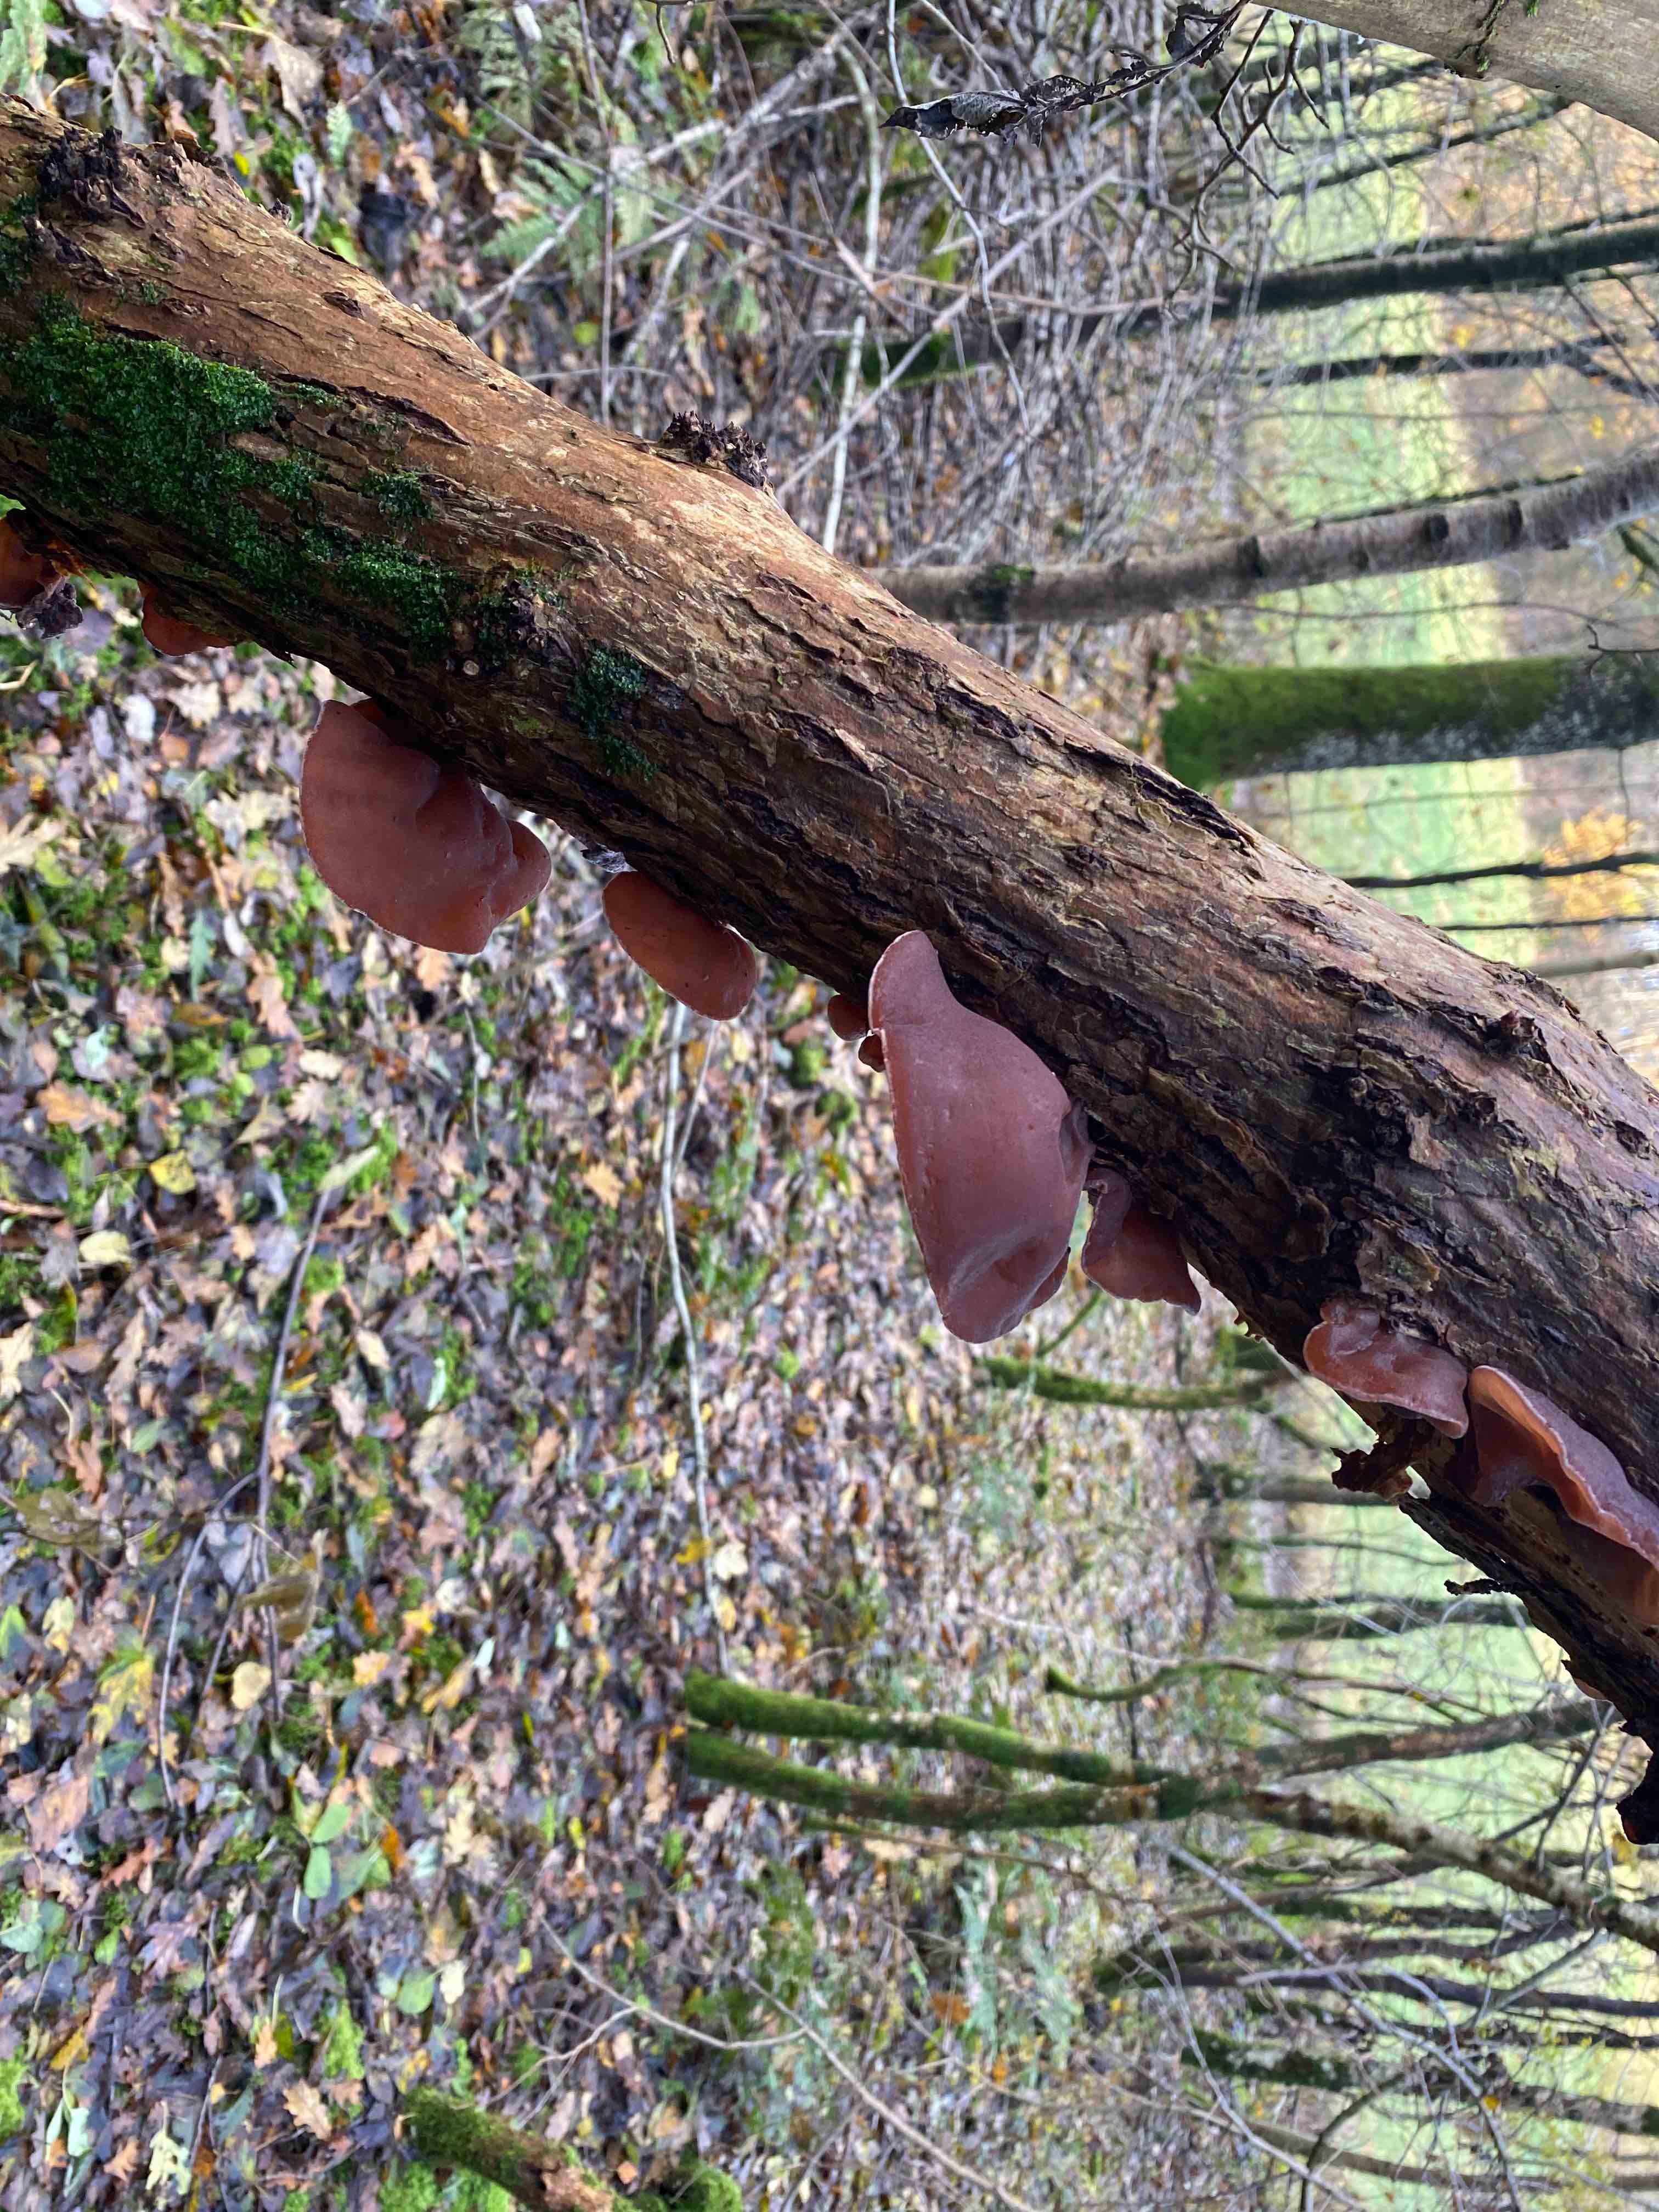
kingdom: Fungi
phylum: Basidiomycota
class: Agaricomycetes
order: Auriculariales
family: Auriculariaceae
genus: Auricularia
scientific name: Auricularia auricula-judae
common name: almindelig judasøre
